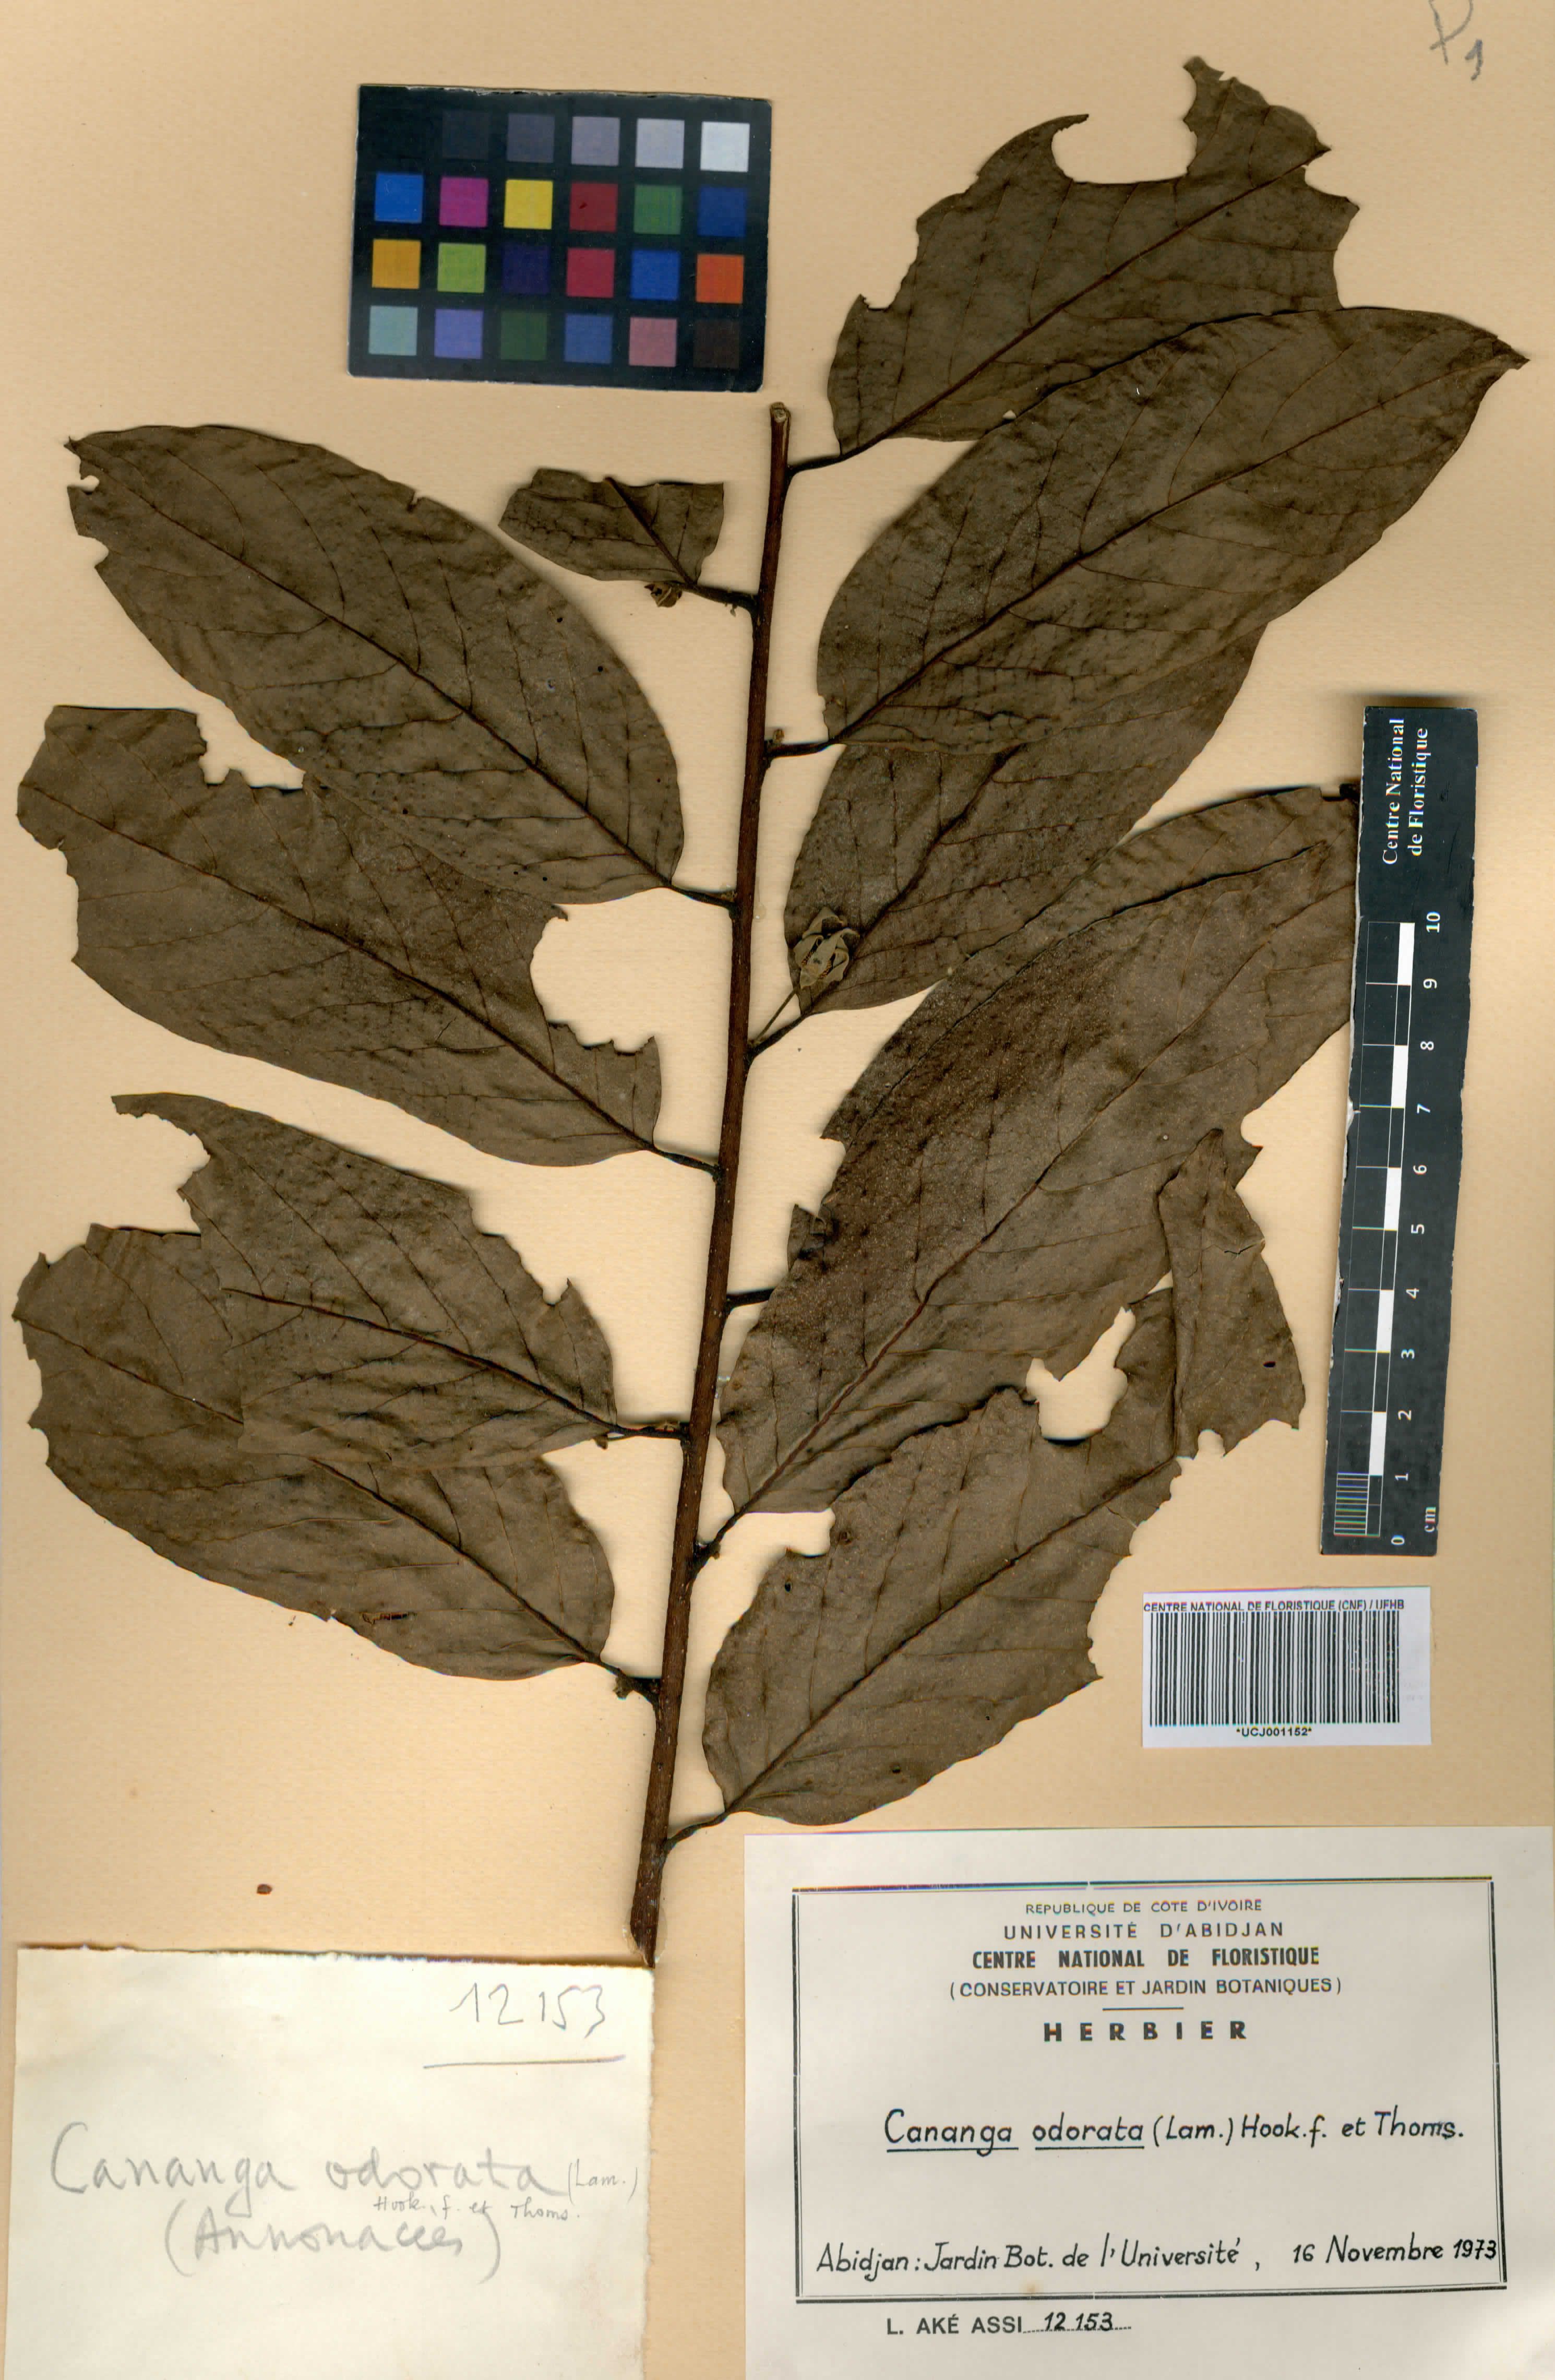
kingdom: Plantae
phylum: Tracheophyta
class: Magnoliopsida
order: Magnoliales
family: Annonaceae
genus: Cananga
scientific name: Cananga odorata
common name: Cananga tree
